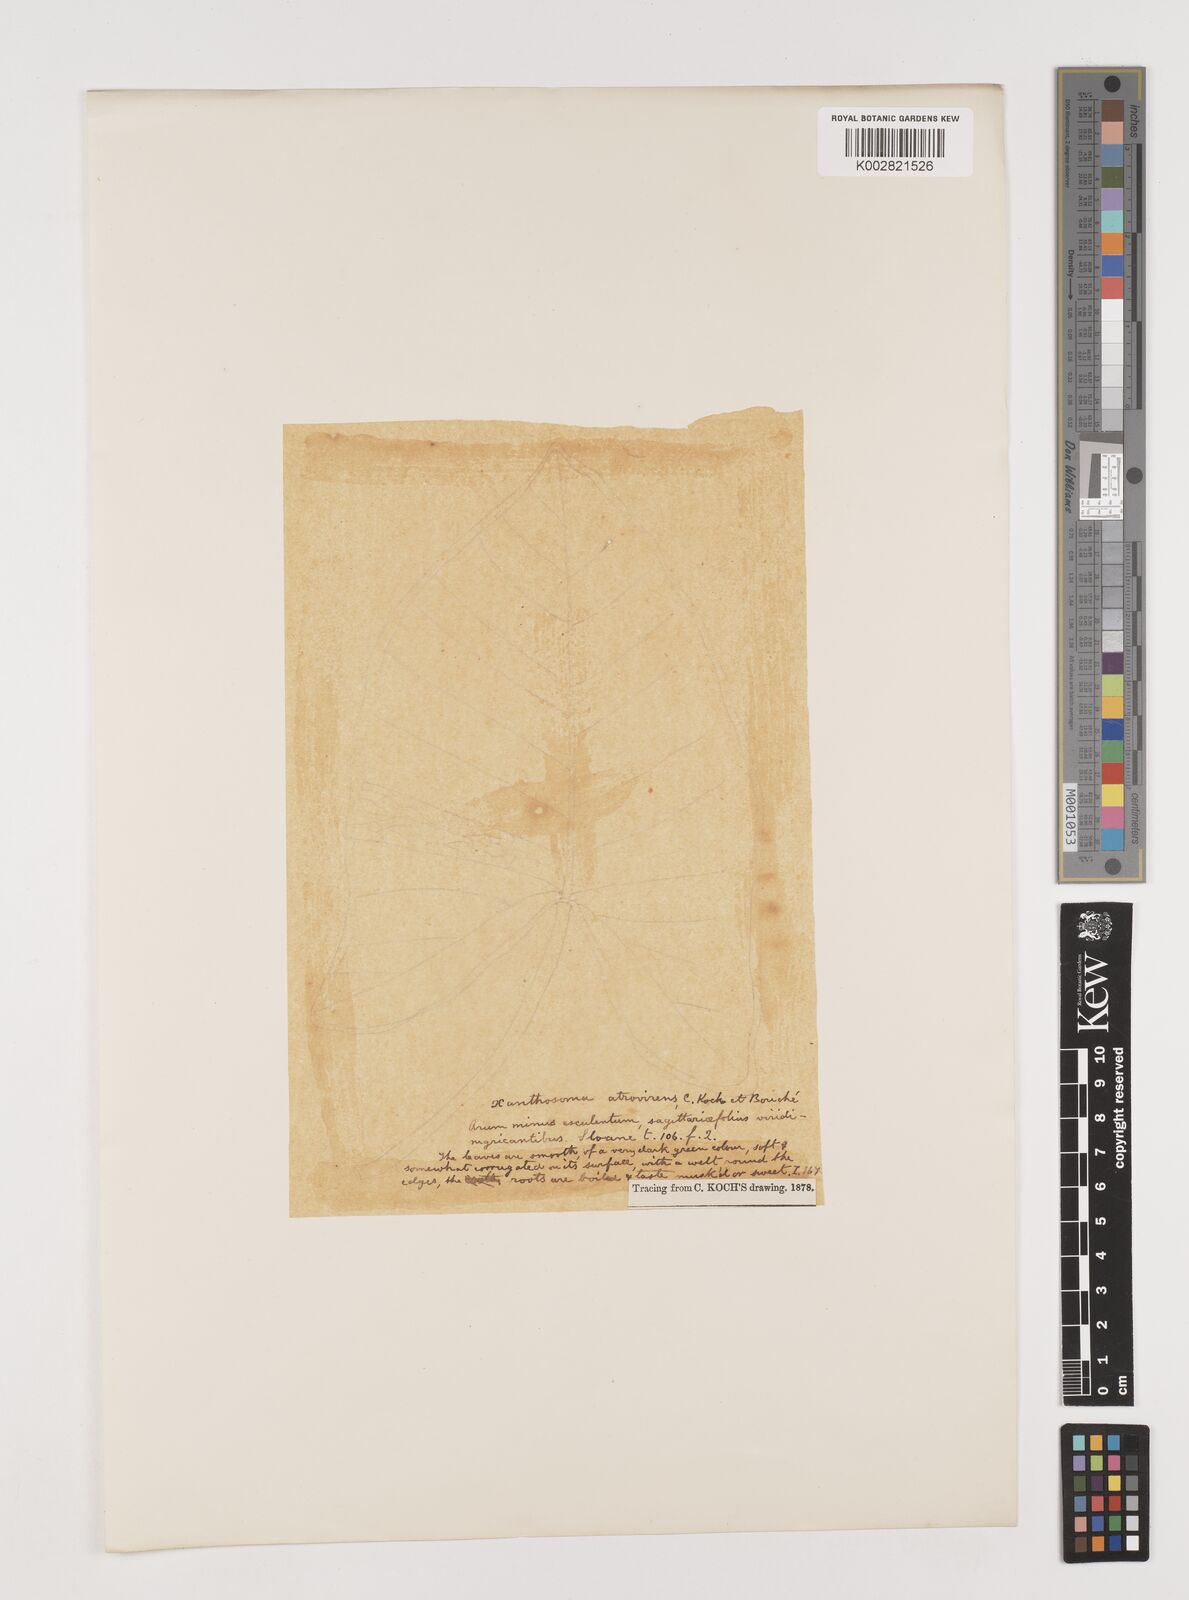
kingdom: Plantae
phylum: Tracheophyta
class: Liliopsida
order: Alismatales
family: Araceae
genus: Xanthosoma
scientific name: Xanthosoma sagittifolium
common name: Arrowleaf elephant's ear
